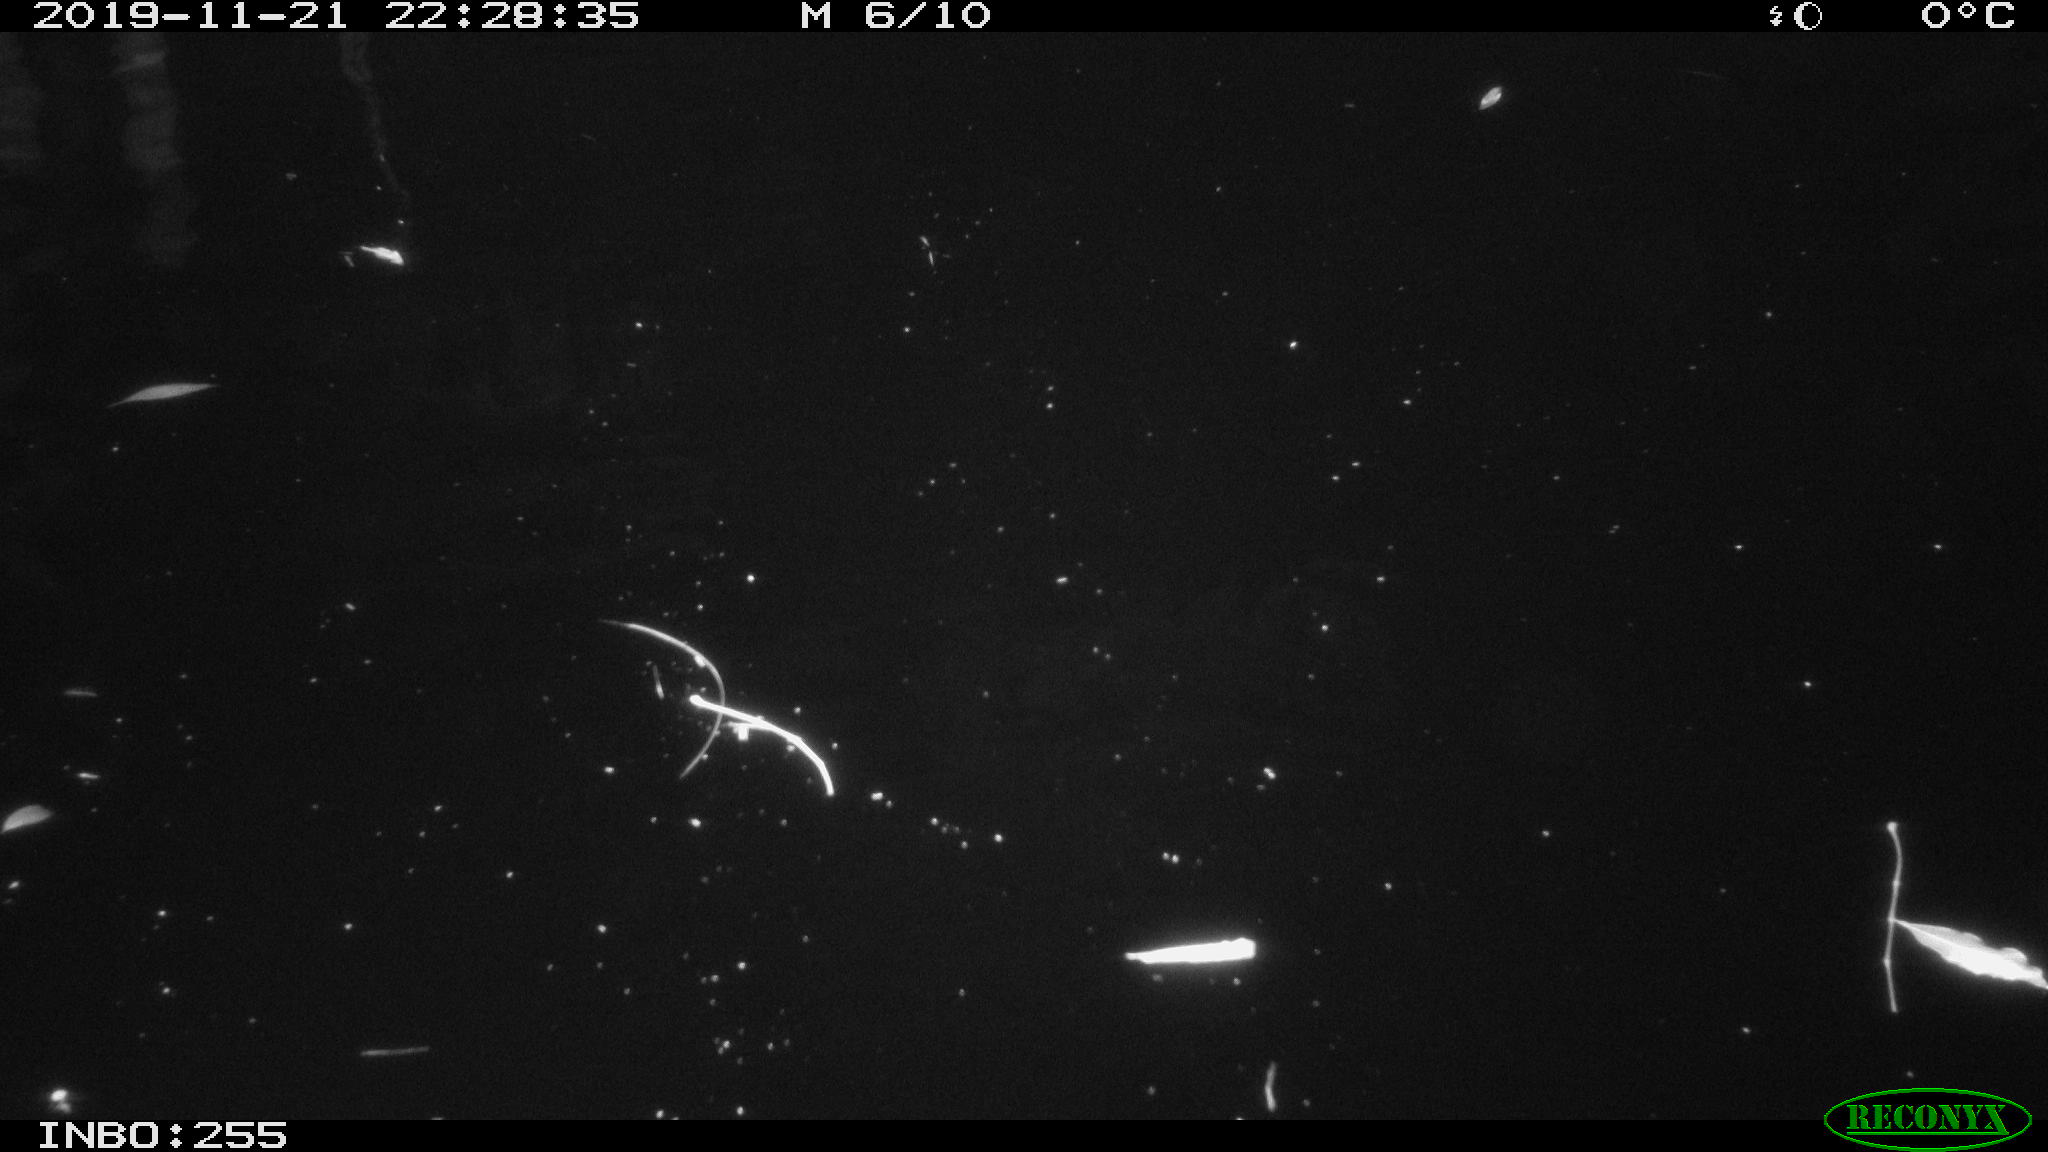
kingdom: Animalia
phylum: Chordata
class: Mammalia
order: Rodentia
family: Cricetidae
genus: Ondatra
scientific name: Ondatra zibethicus
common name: Muskrat
